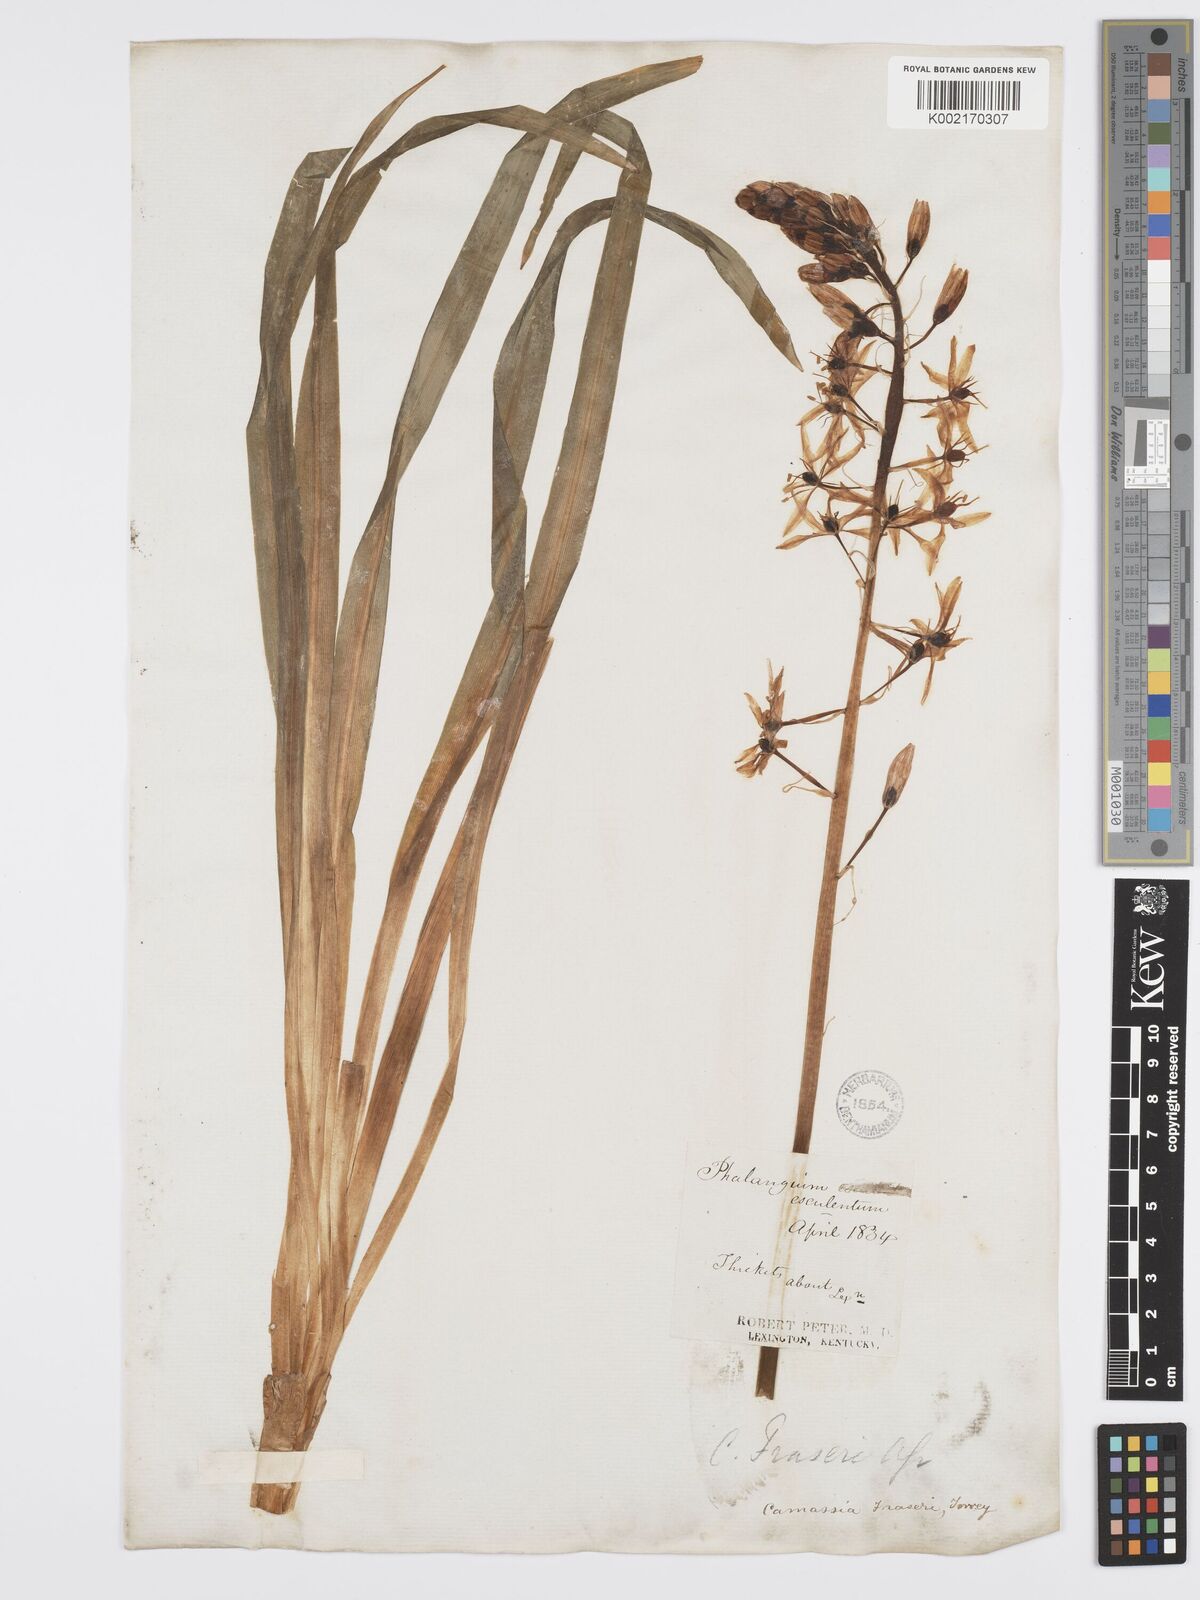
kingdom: Plantae
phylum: Tracheophyta
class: Liliopsida
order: Asparagales
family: Asparagaceae
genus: Camassia
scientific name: Camassia scilloides
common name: Wild hyacinth
